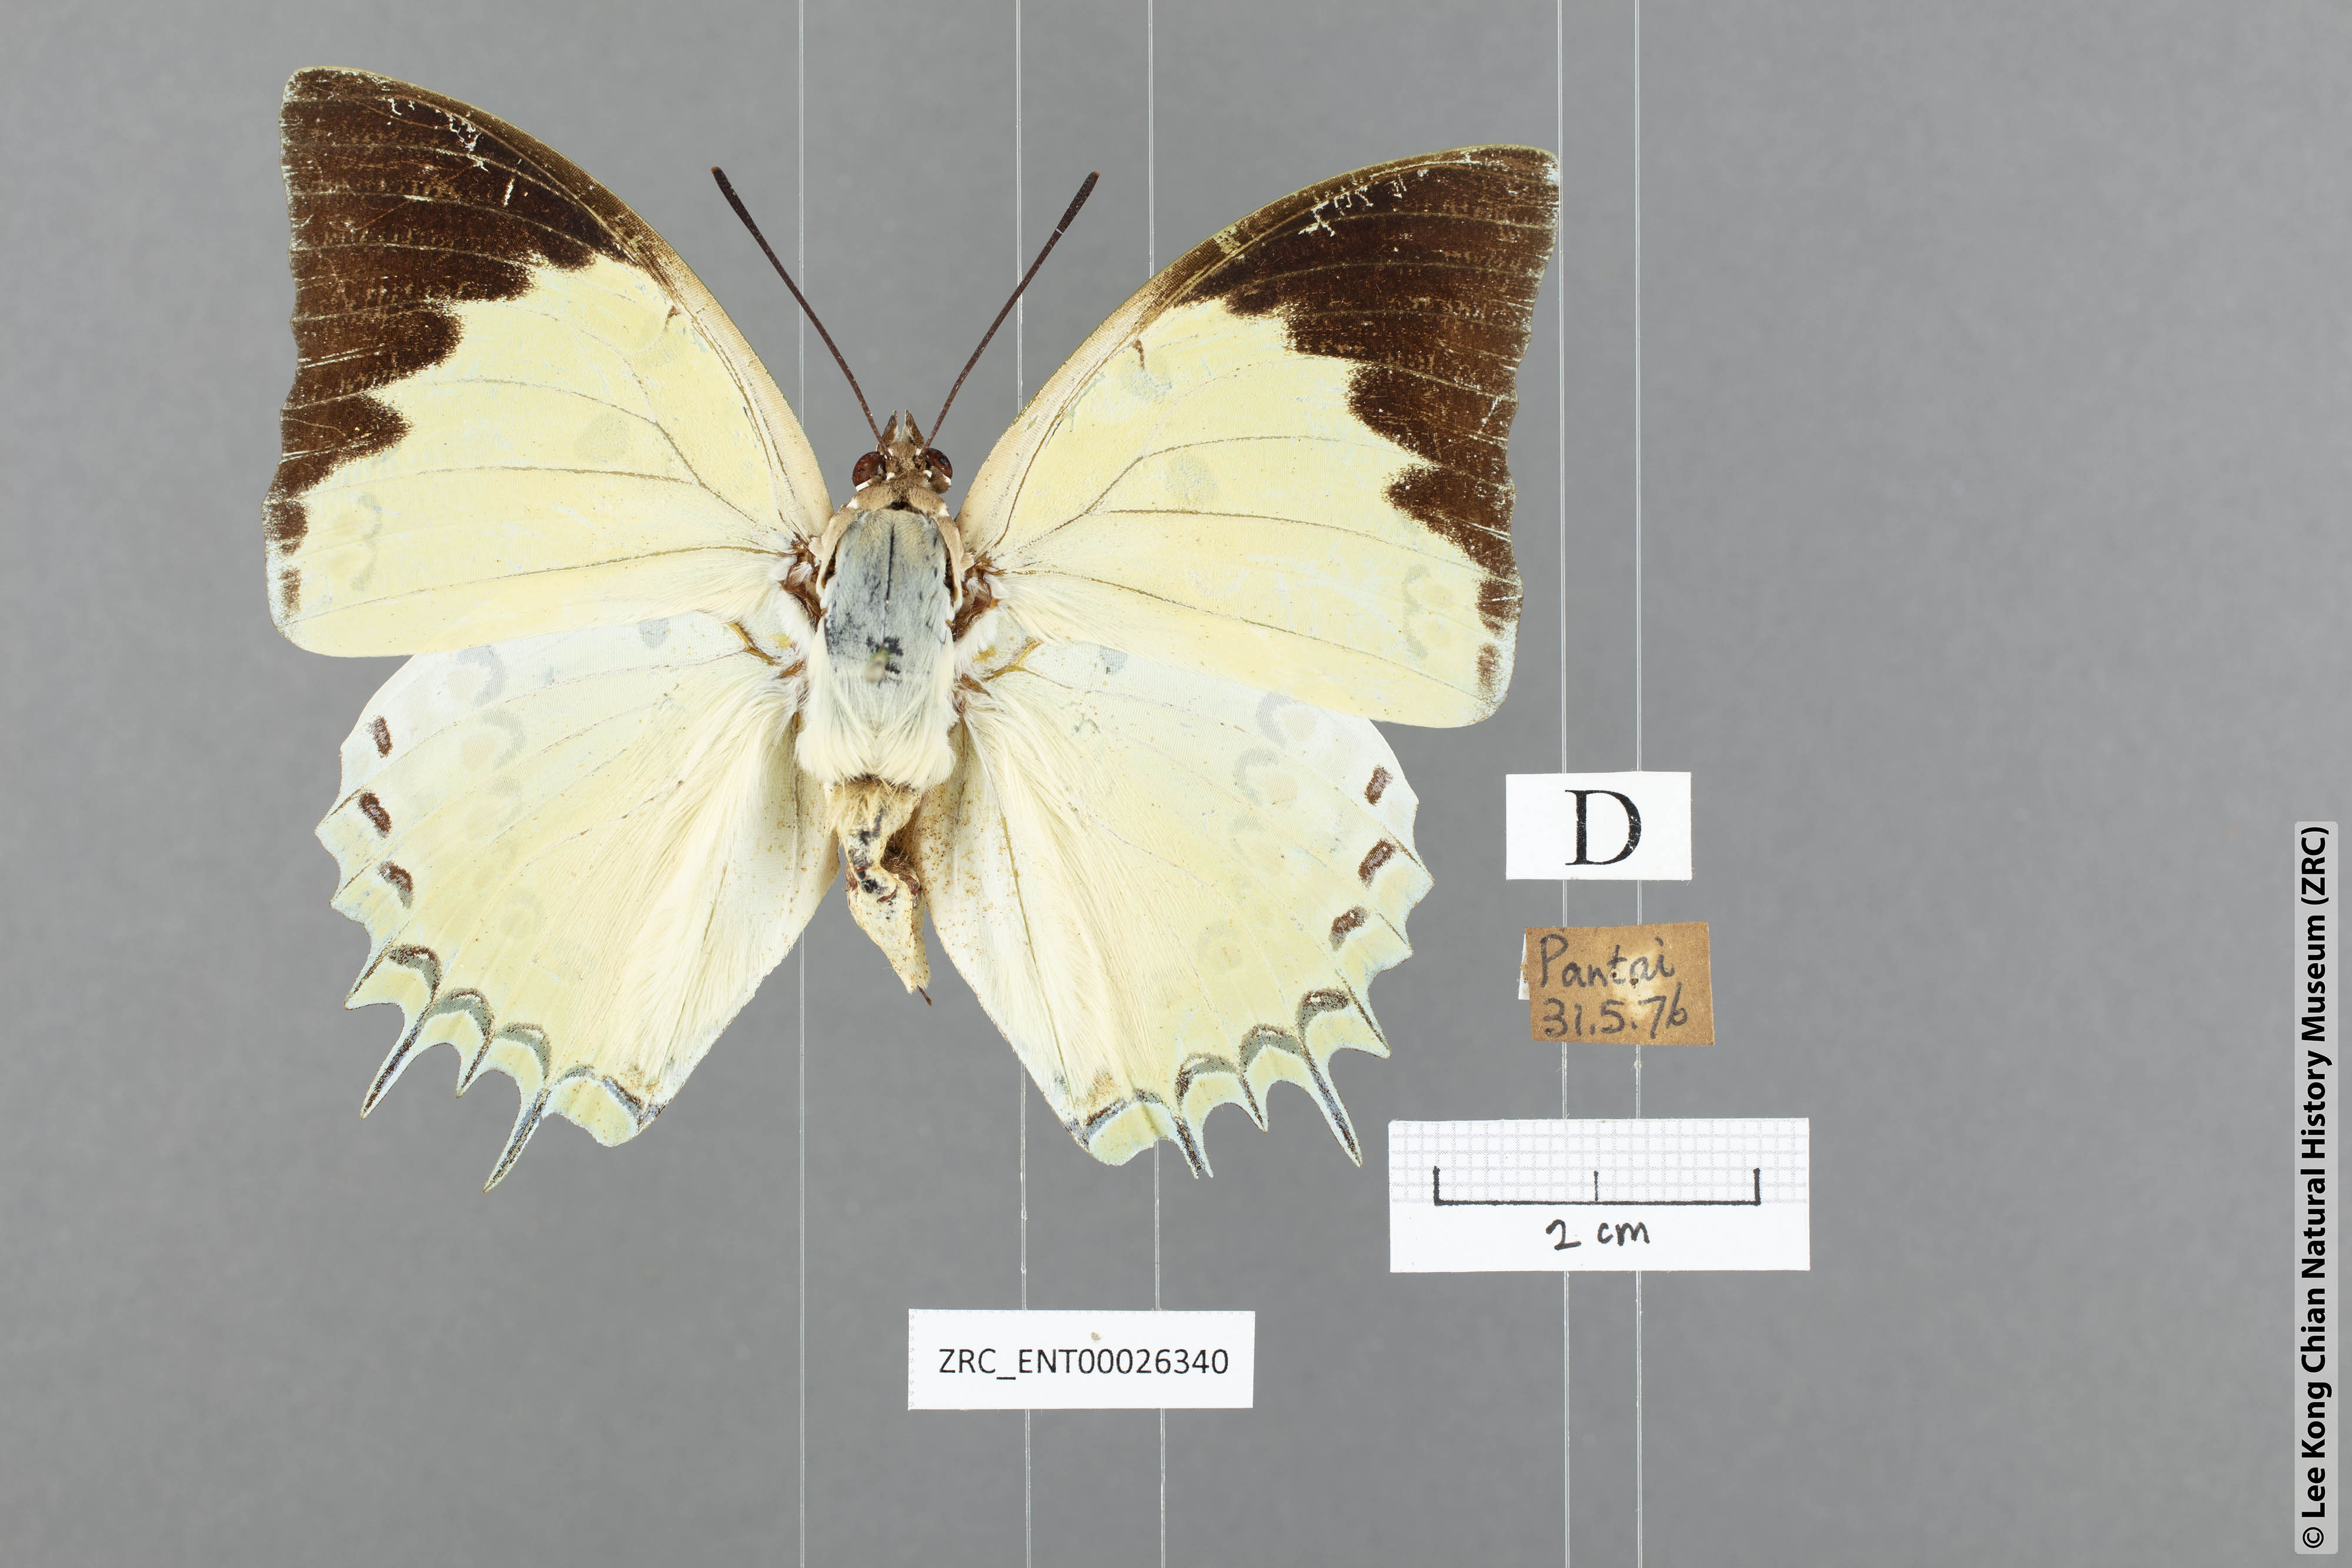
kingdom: Animalia
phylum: Arthropoda
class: Insecta
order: Lepidoptera
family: Nymphalidae
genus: Polyura
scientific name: Polyura delphis
